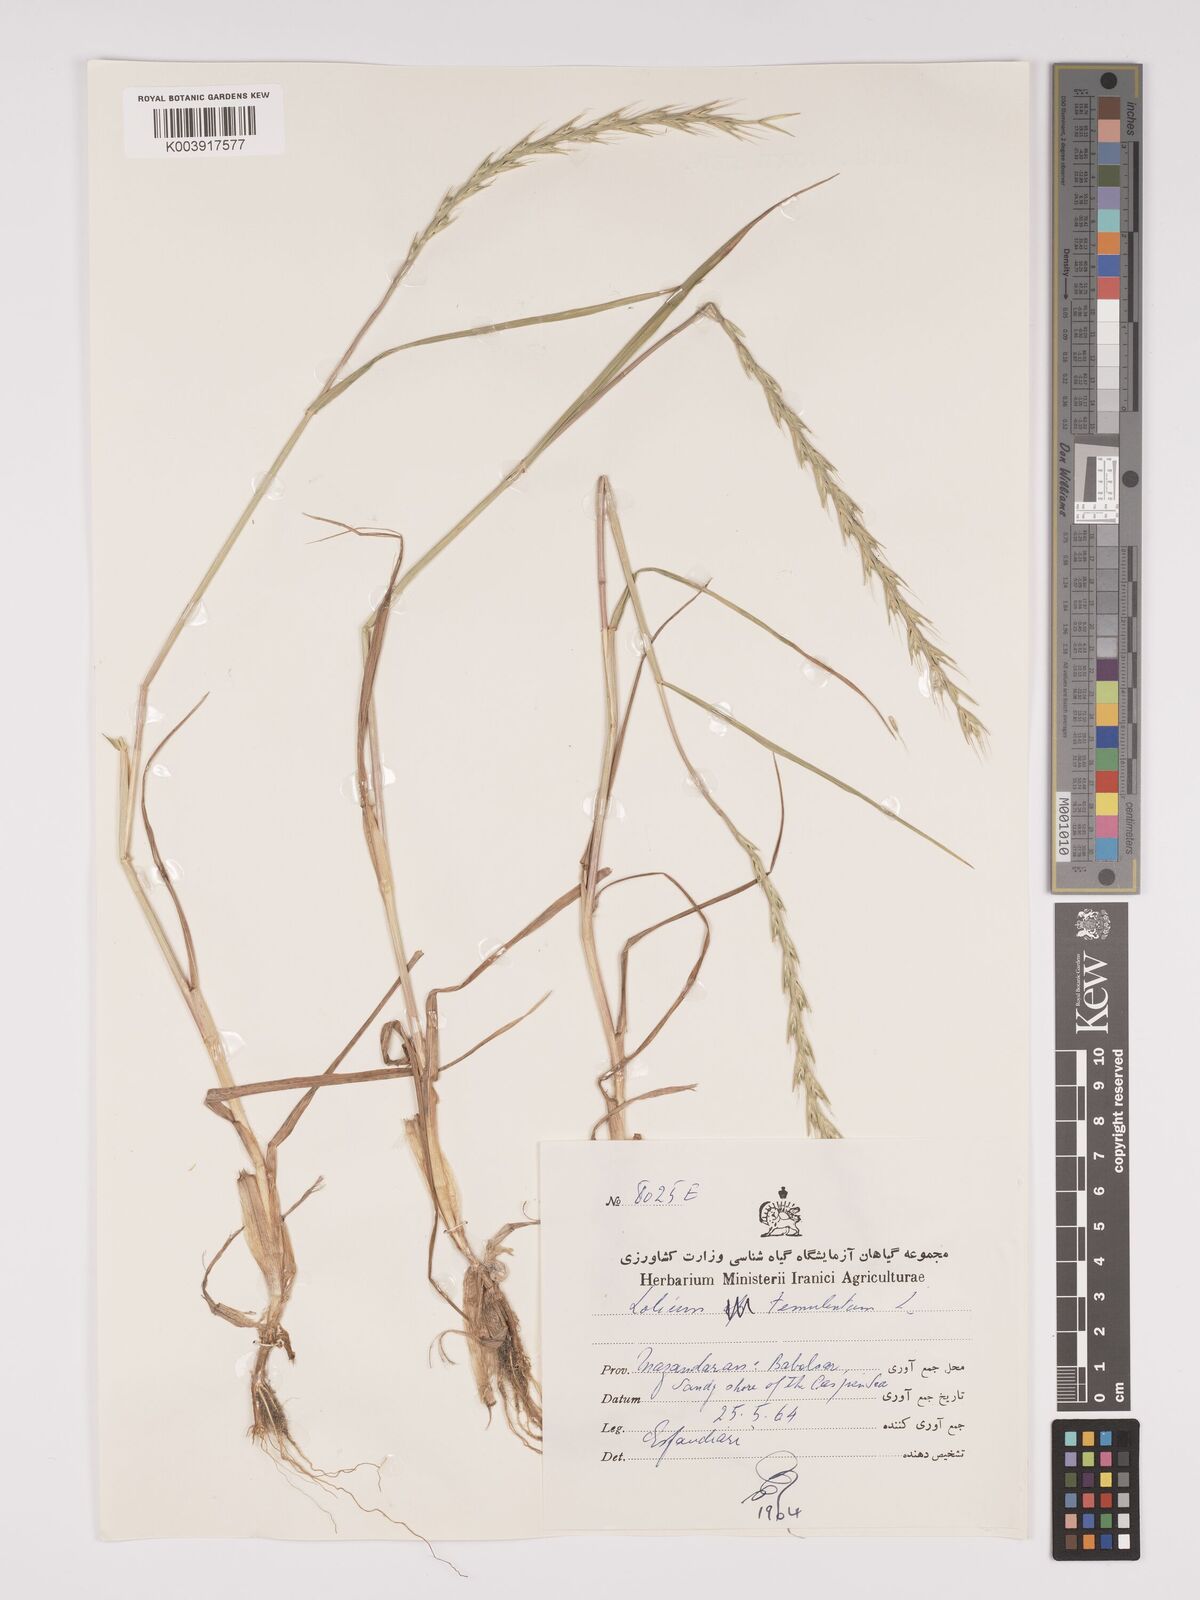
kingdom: Plantae
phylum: Tracheophyta
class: Liliopsida
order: Poales
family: Poaceae
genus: Lolium
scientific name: Lolium temulentum
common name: Darnel
